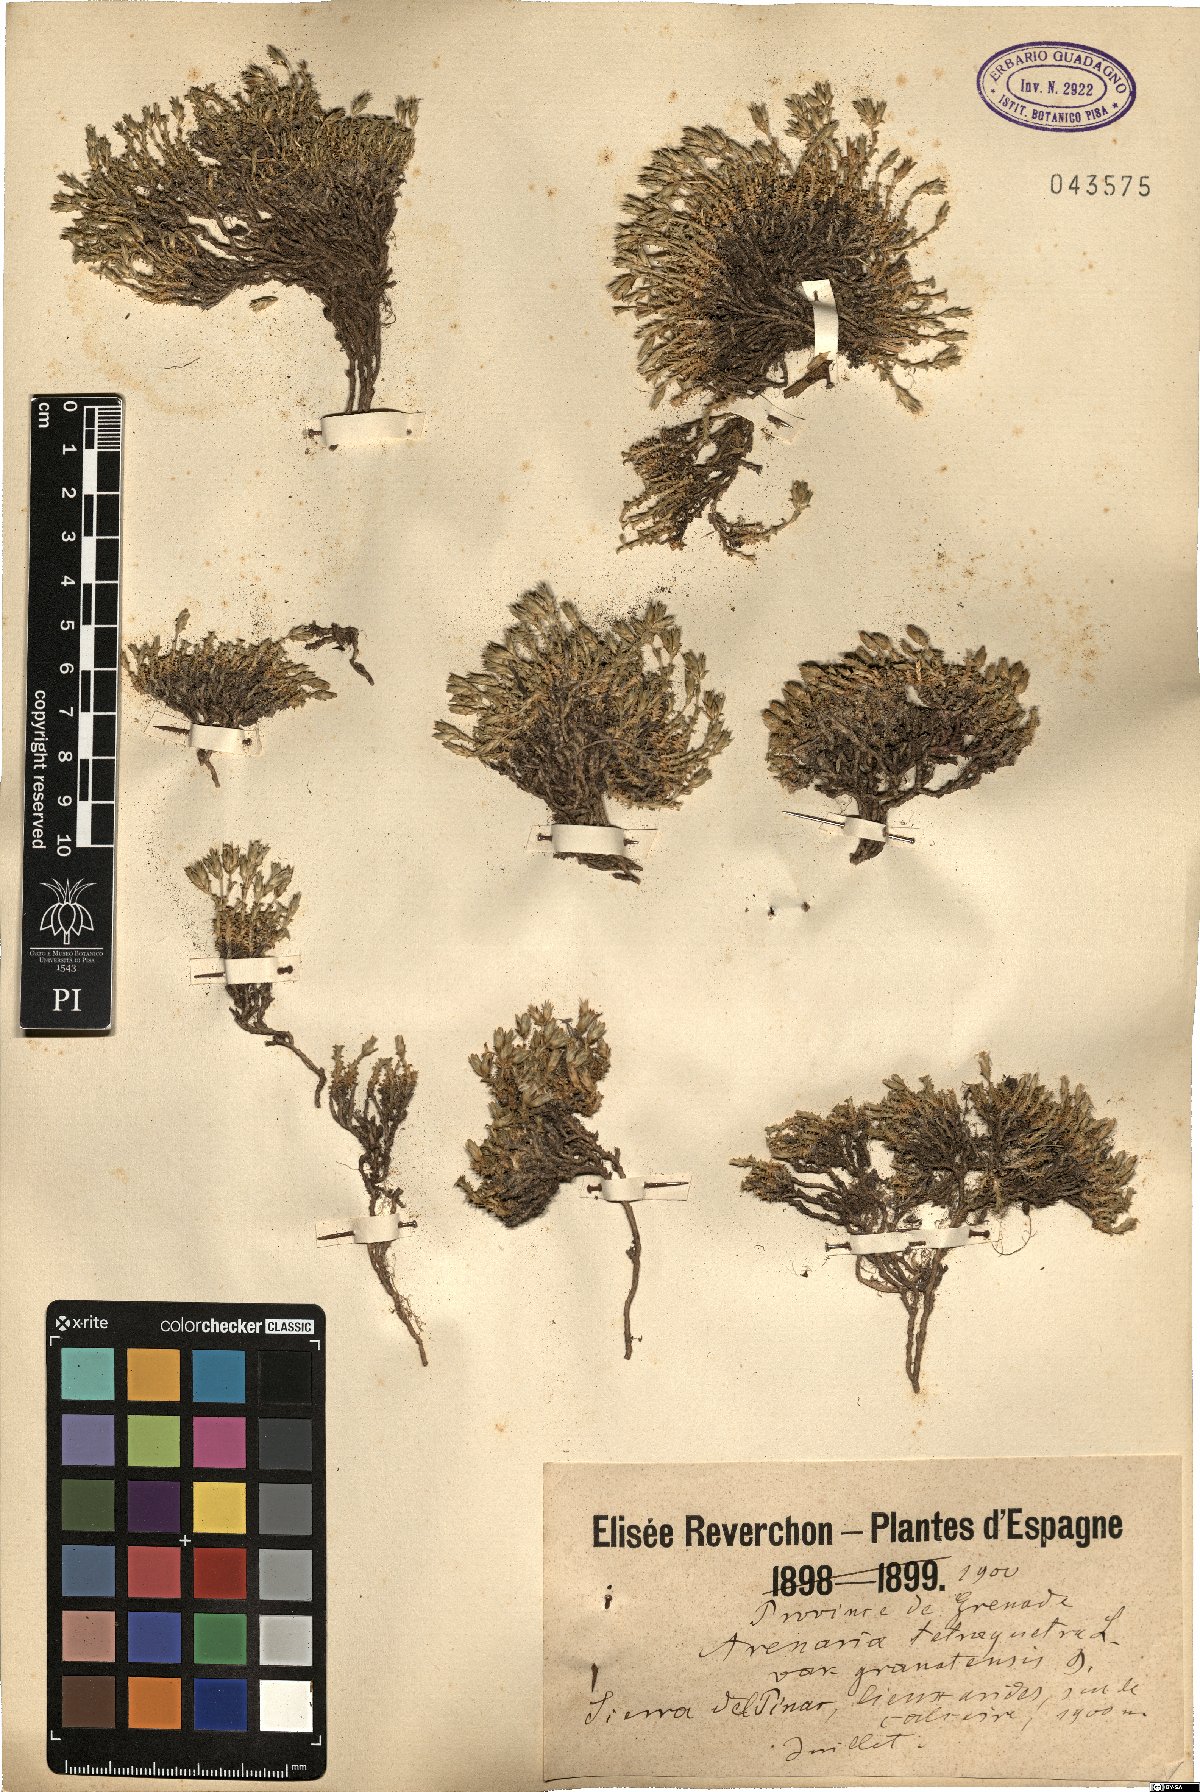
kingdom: Plantae
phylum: Tracheophyta
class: Magnoliopsida
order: Caryophyllales
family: Caryophyllaceae
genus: Arenaria
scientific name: Arenaria tetraquetra
